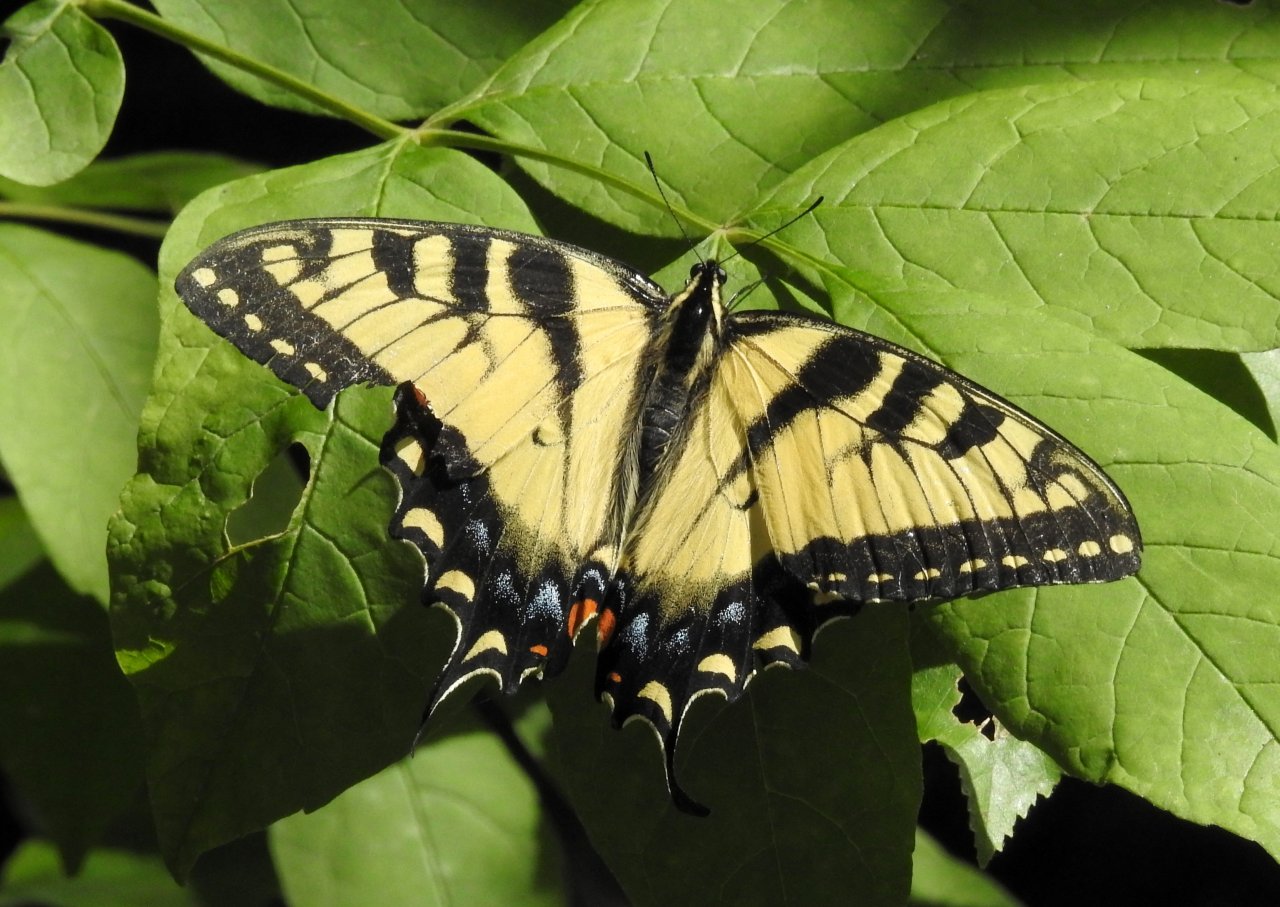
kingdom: Animalia
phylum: Arthropoda
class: Insecta
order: Lepidoptera
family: Papilionidae
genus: Pterourus
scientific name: Pterourus glaucus
